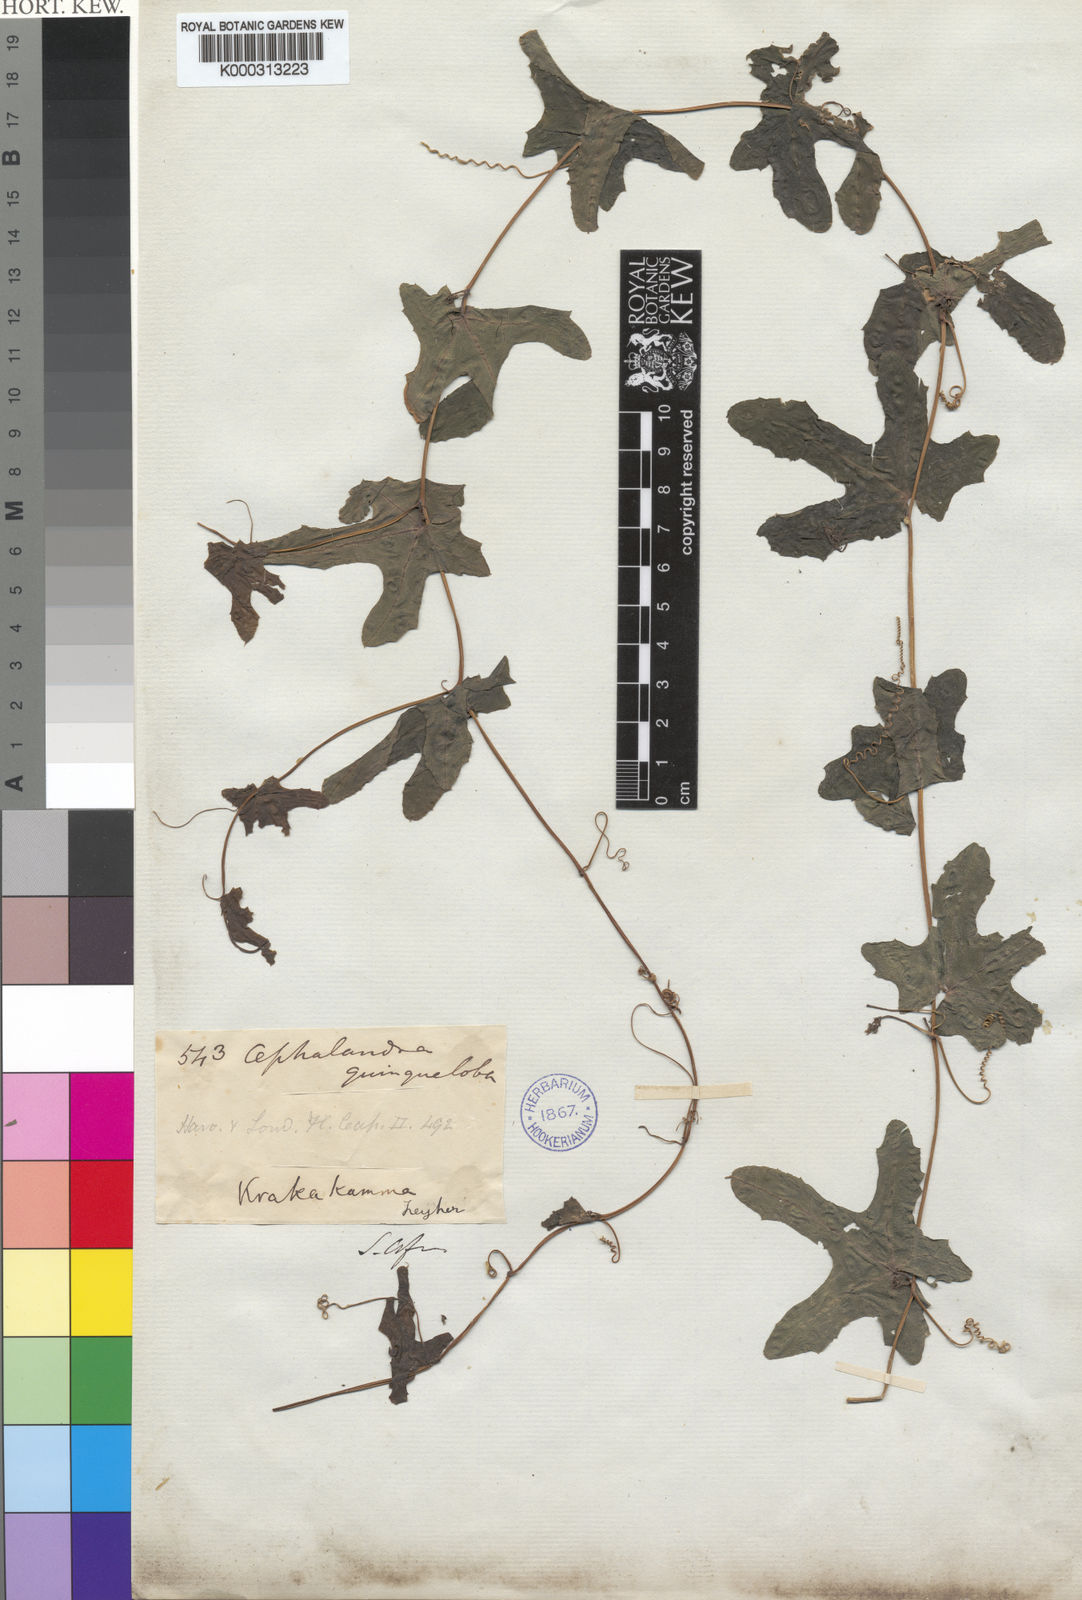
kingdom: Plantae
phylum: Tracheophyta
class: Magnoliopsida
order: Cucurbitales
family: Cucurbitaceae
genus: Coccinia
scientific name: Coccinia quinqueloba
